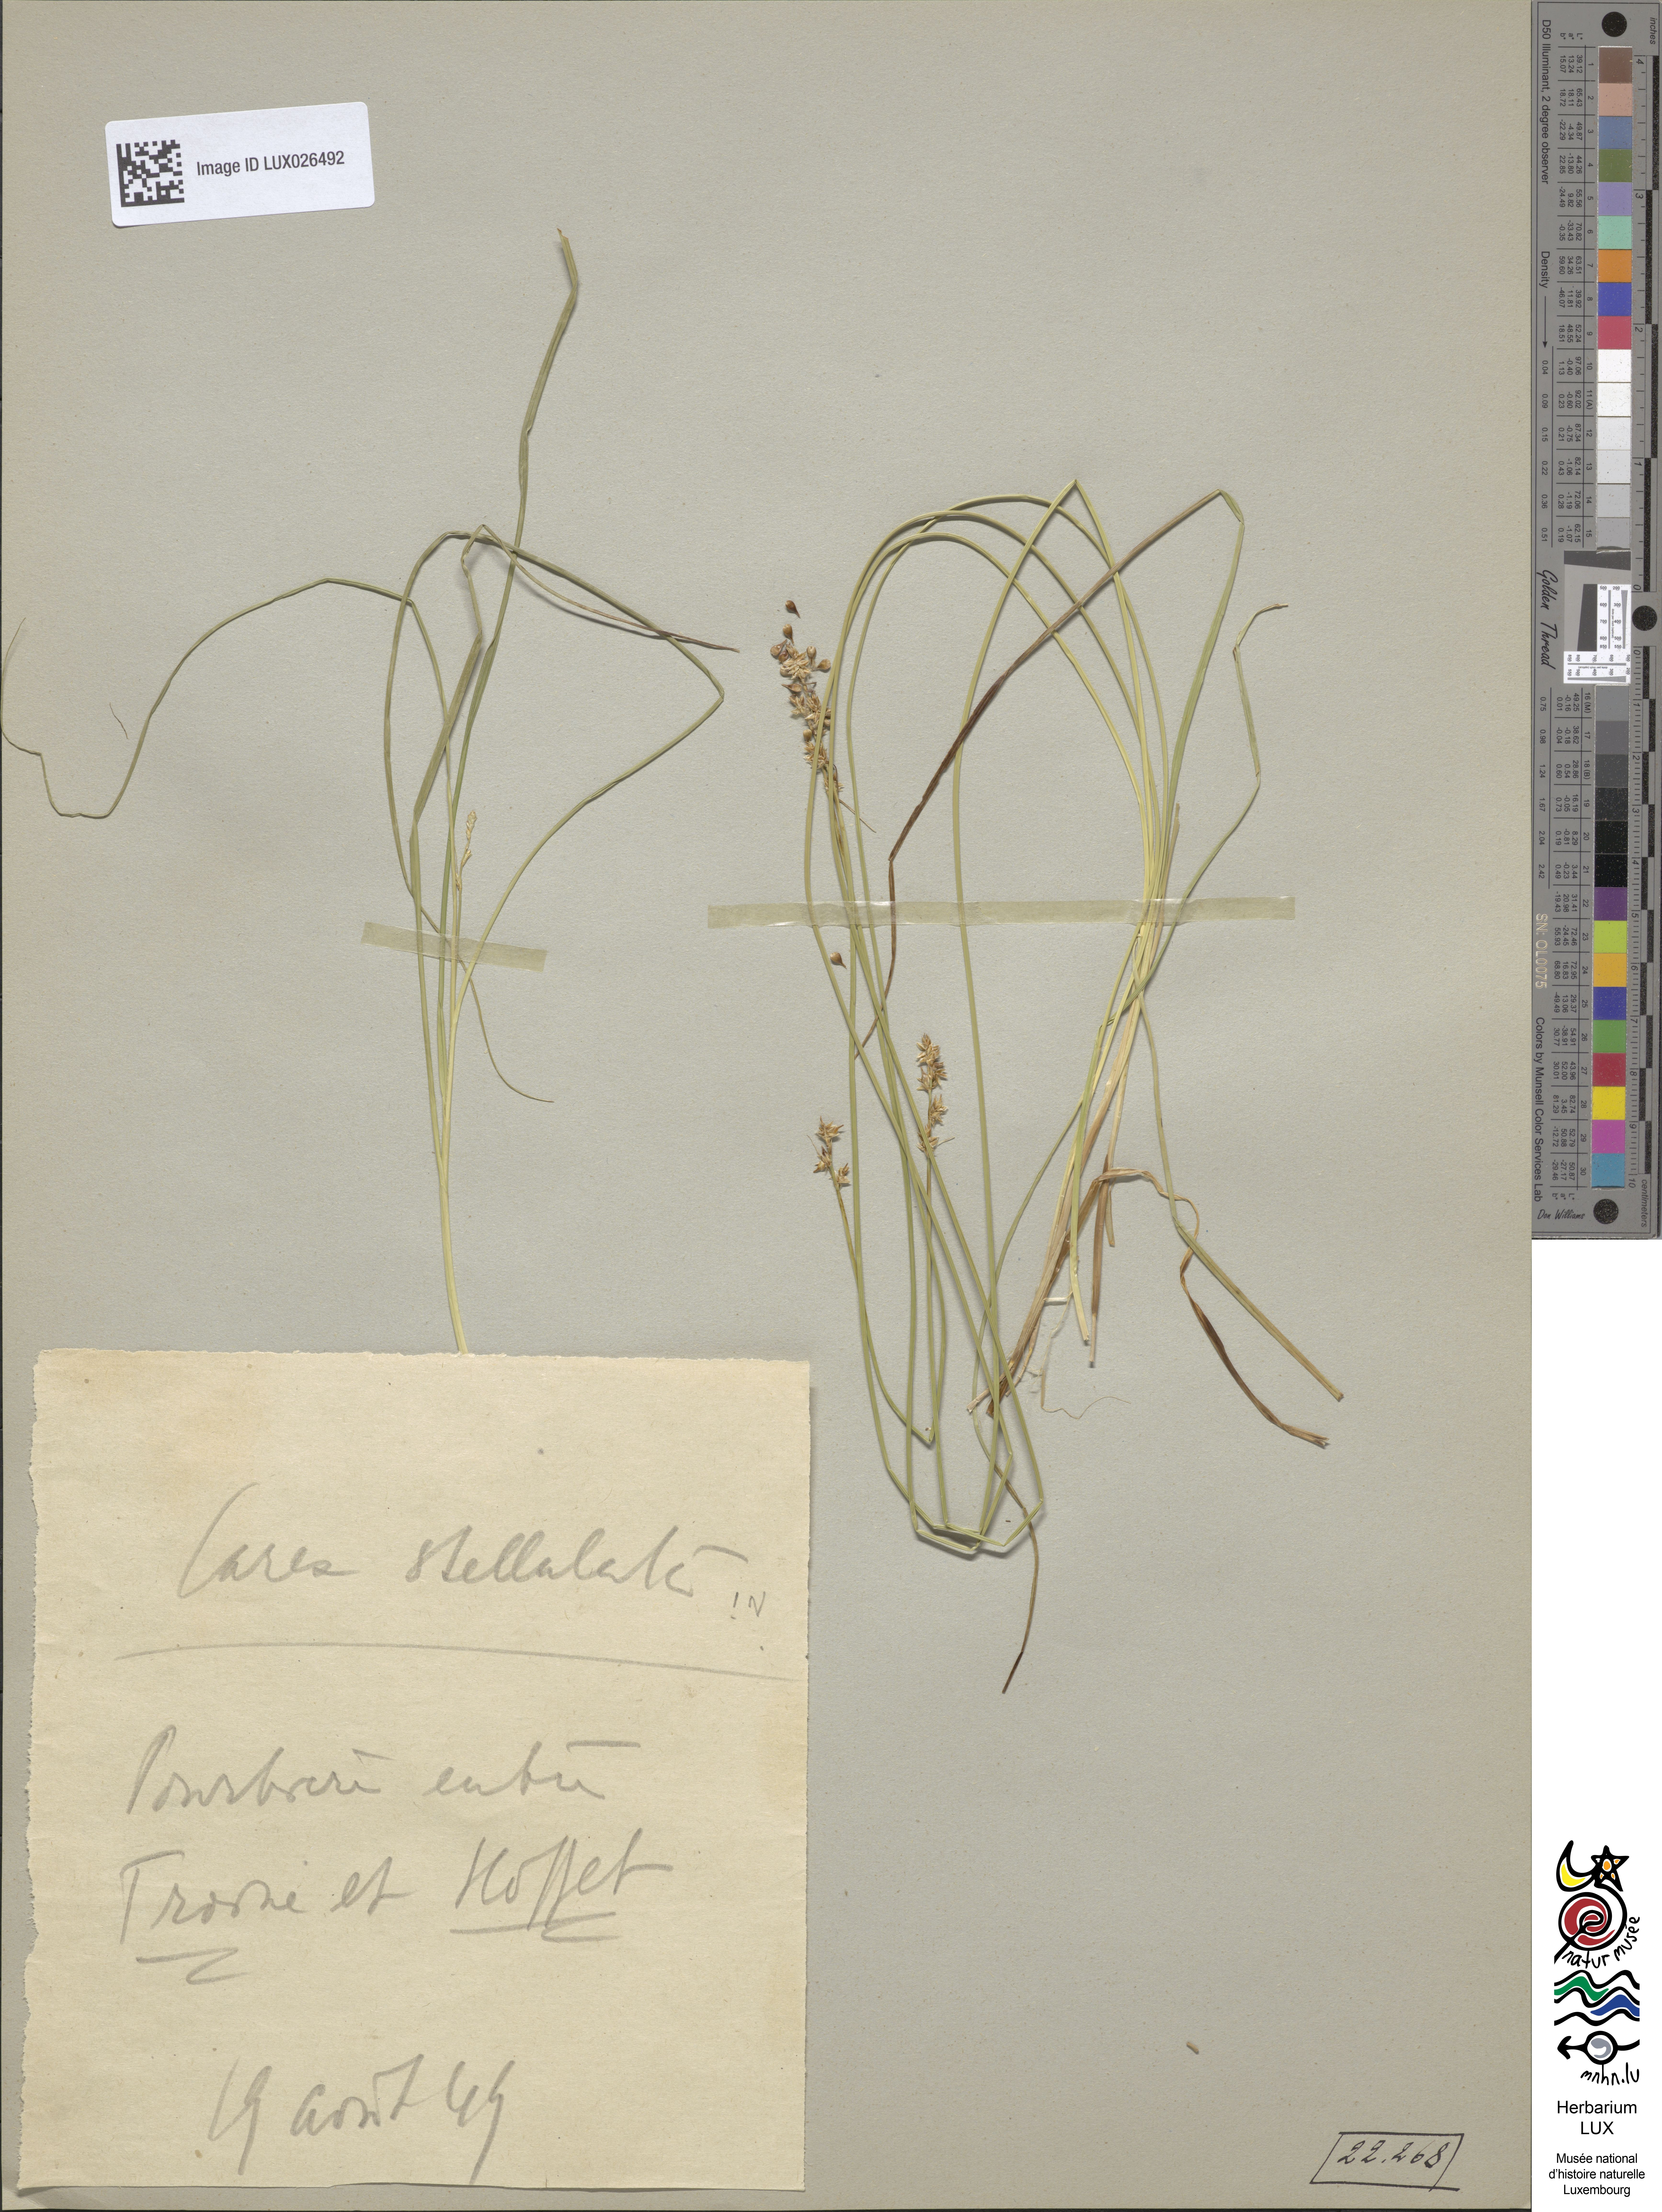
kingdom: Plantae
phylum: Tracheophyta
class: Liliopsida
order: Poales
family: Cyperaceae
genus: Carex
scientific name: Carex echinata
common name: Star sedge
